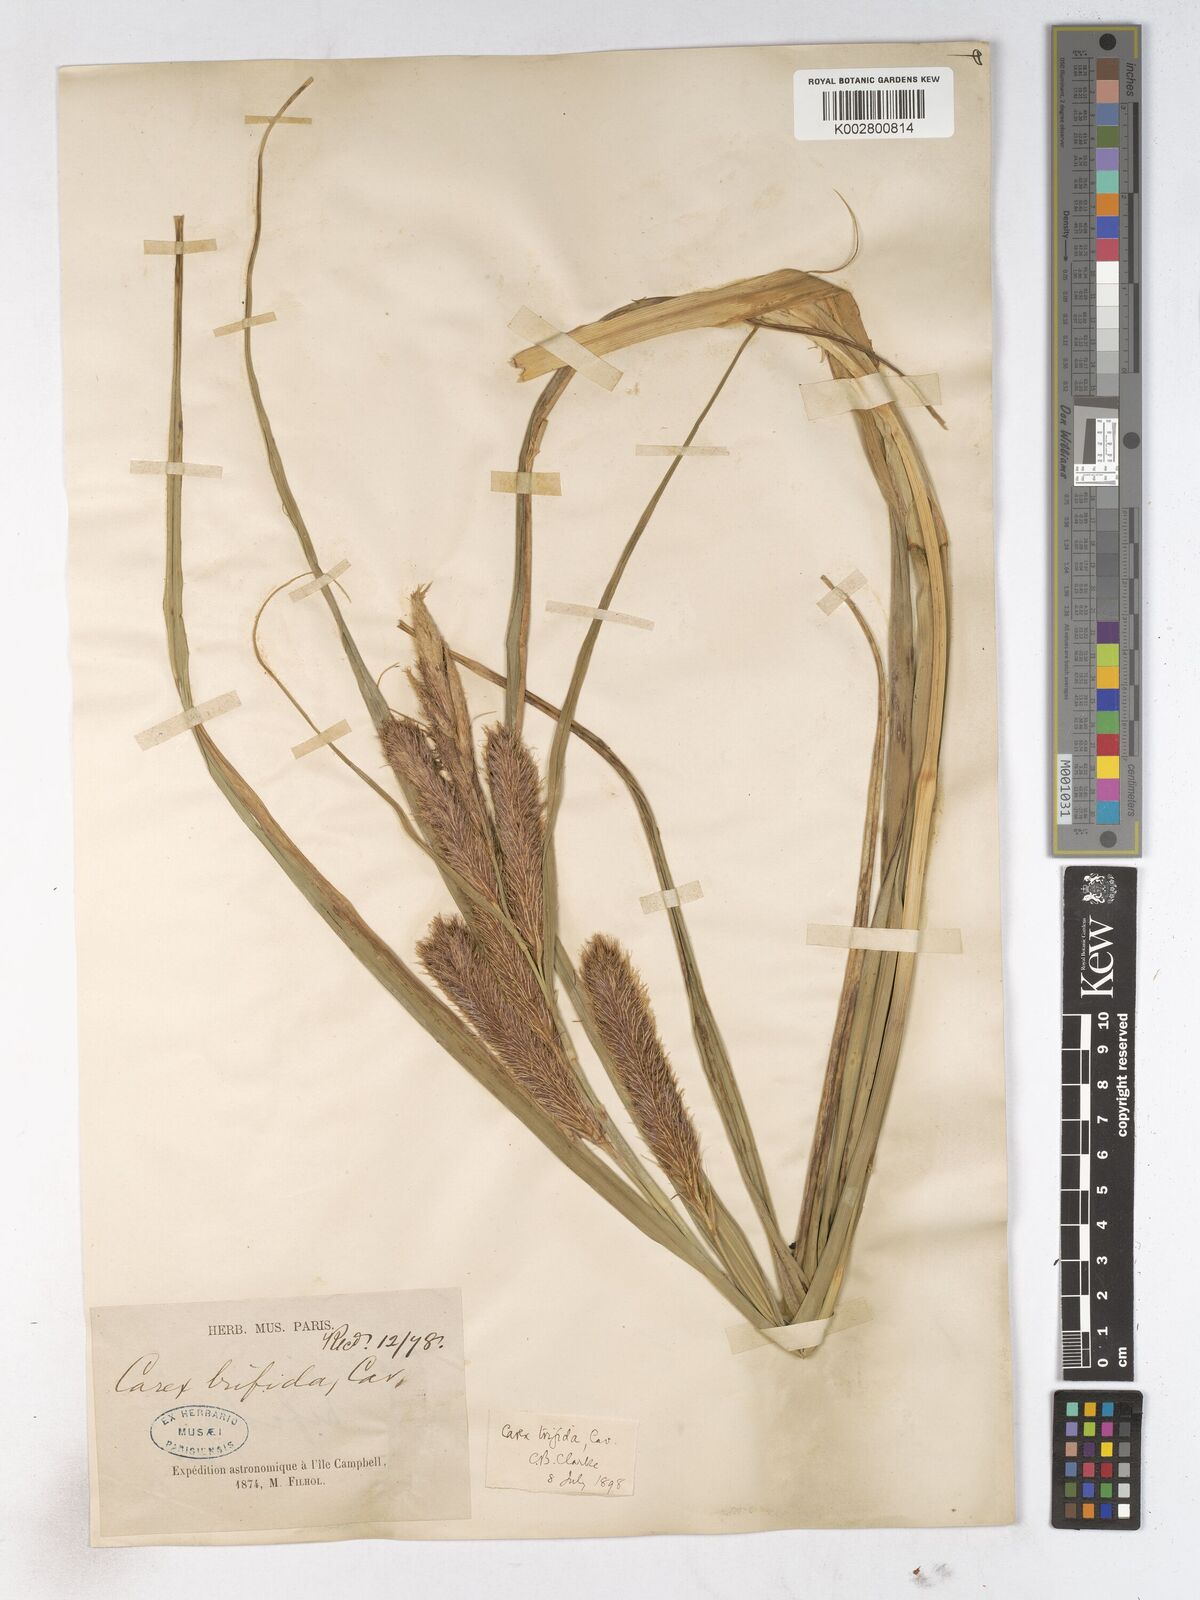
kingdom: Plantae
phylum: Tracheophyta
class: Liliopsida
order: Poales
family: Cyperaceae
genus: Carex
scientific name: Carex trifida
